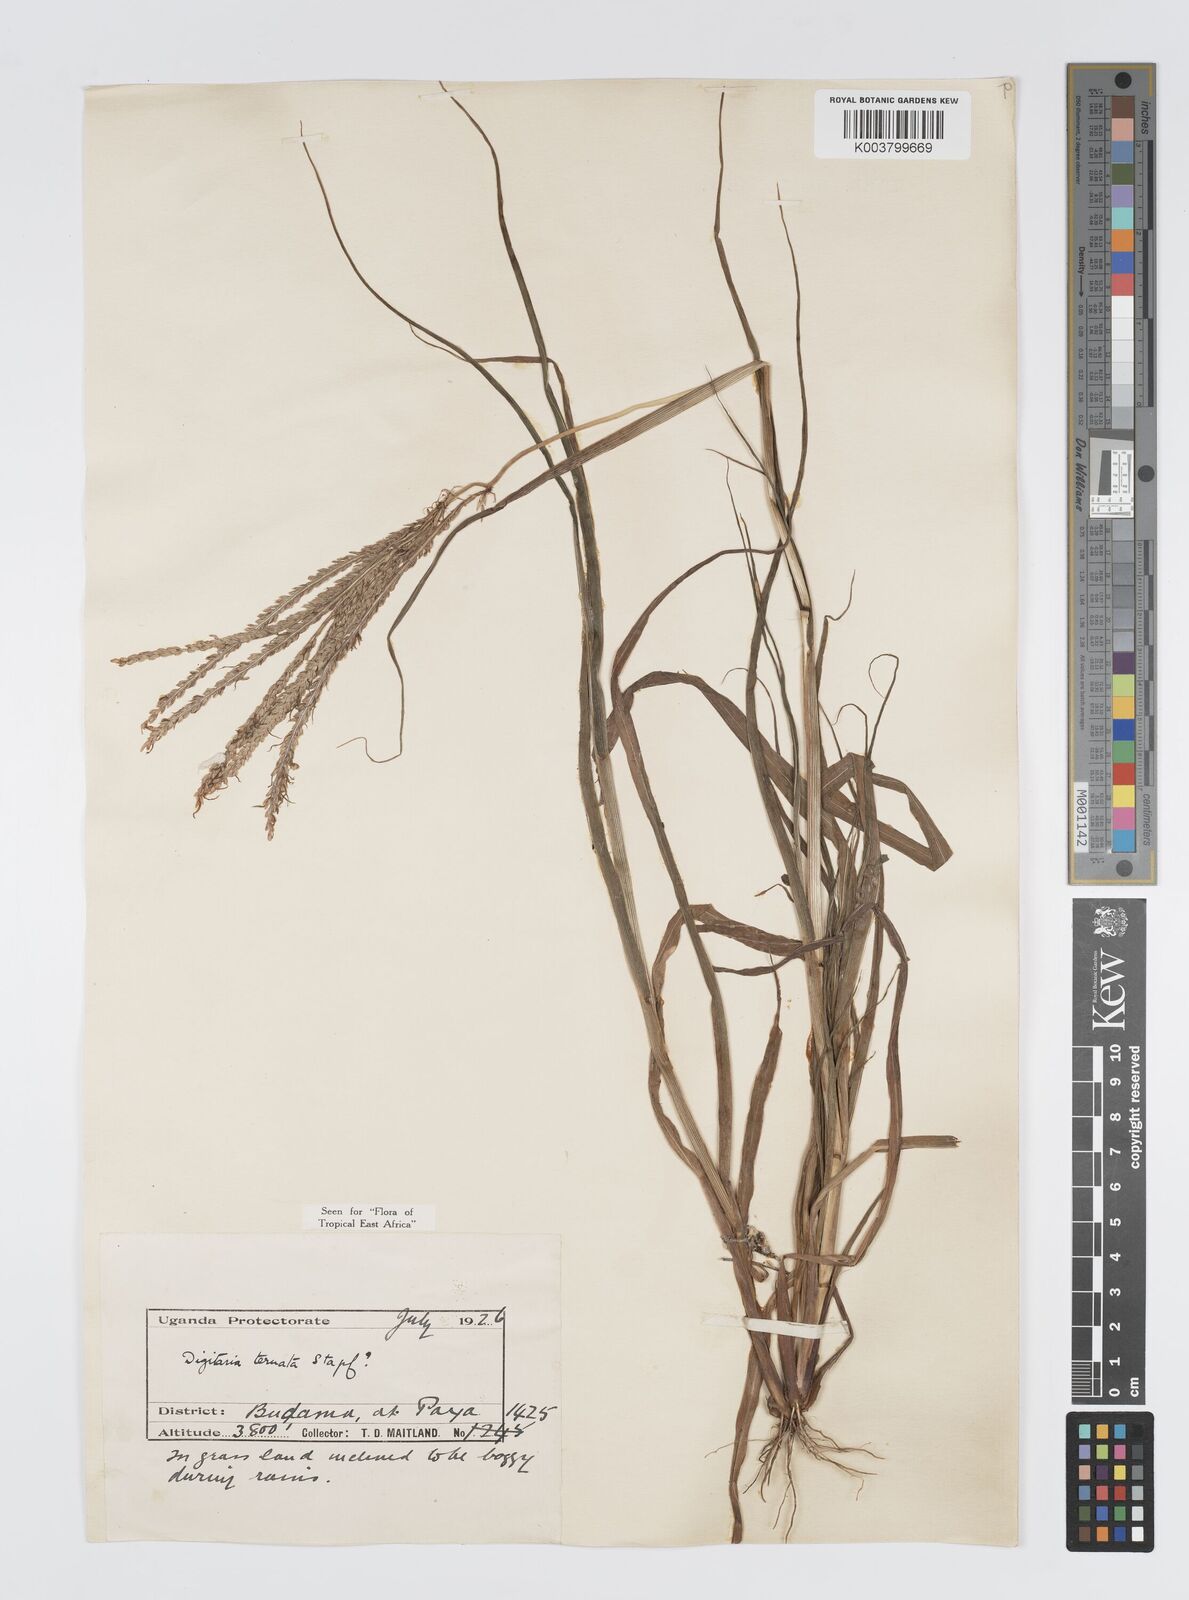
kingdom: Plantae
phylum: Tracheophyta
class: Liliopsida
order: Poales
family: Poaceae
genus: Digitaria
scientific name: Digitaria ternata
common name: Blackseed crabgrass
